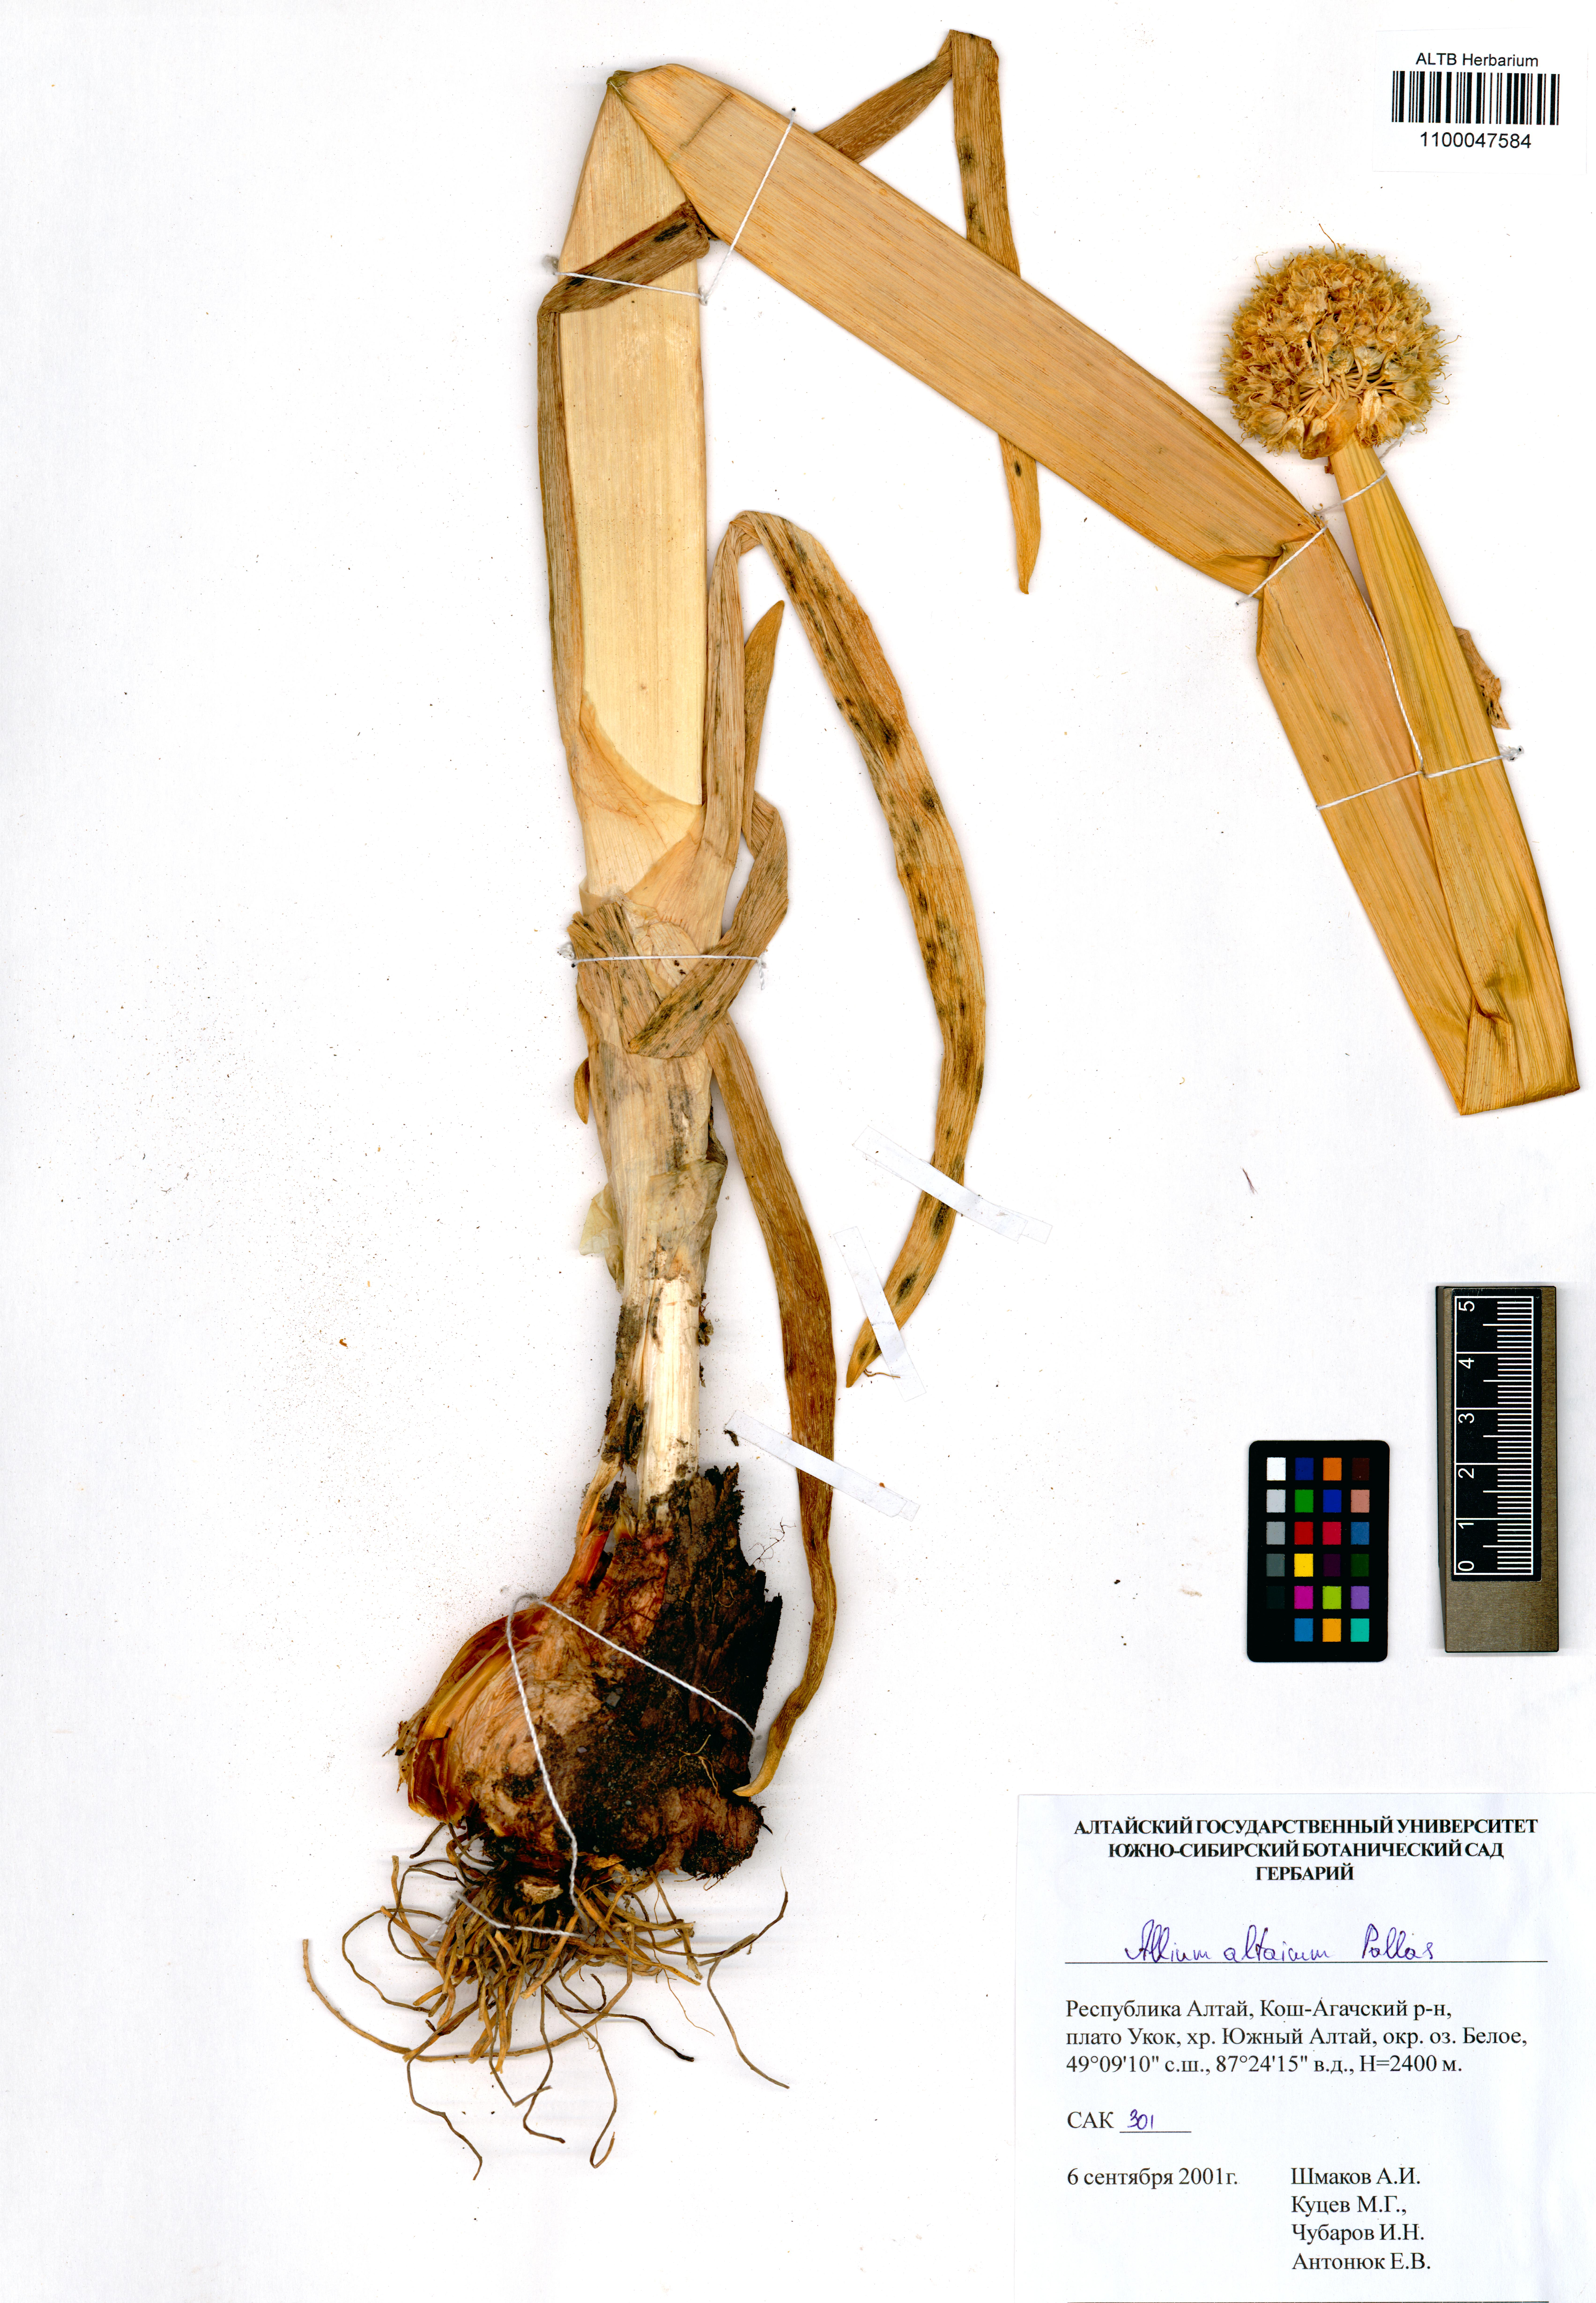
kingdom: Plantae
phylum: Tracheophyta
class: Liliopsida
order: Asparagales
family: Amaryllidaceae
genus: Allium
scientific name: Allium altaicum
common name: Altai onion
